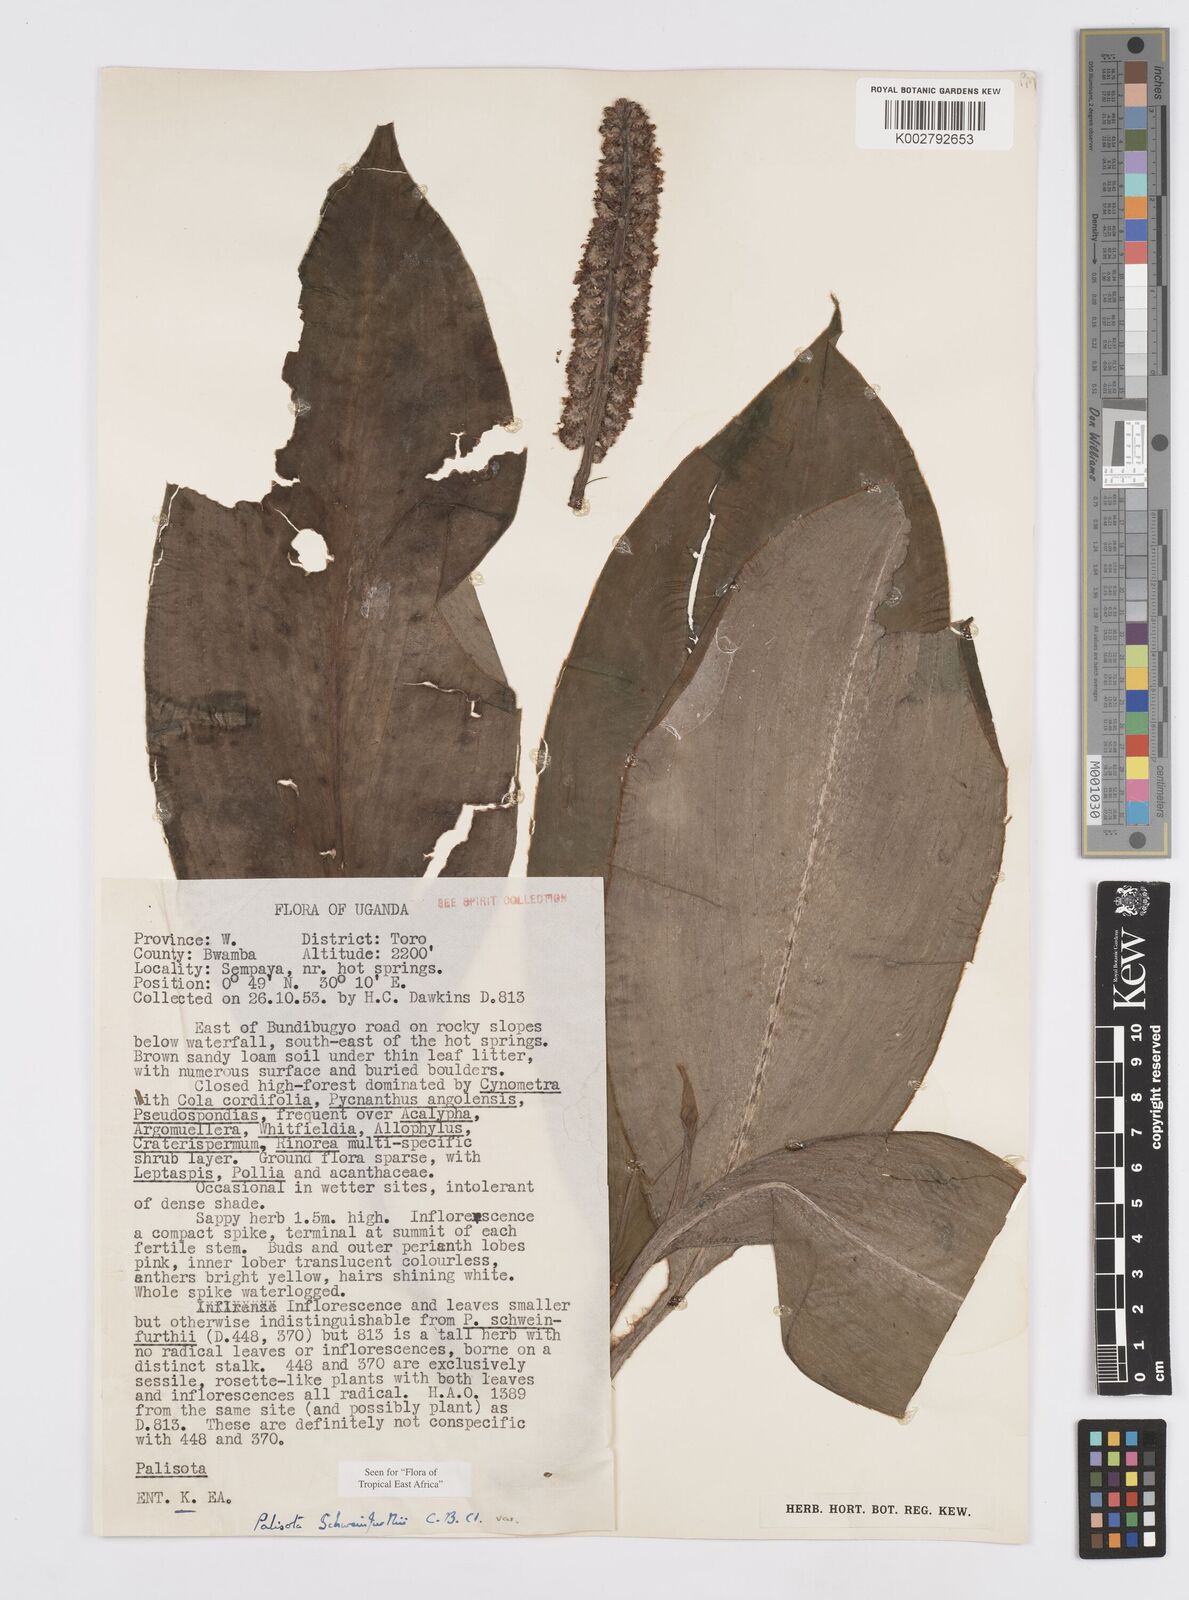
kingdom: Plantae
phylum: Tracheophyta
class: Liliopsida
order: Commelinales
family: Commelinaceae
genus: Palisota
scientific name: Palisota schweinfurthii
